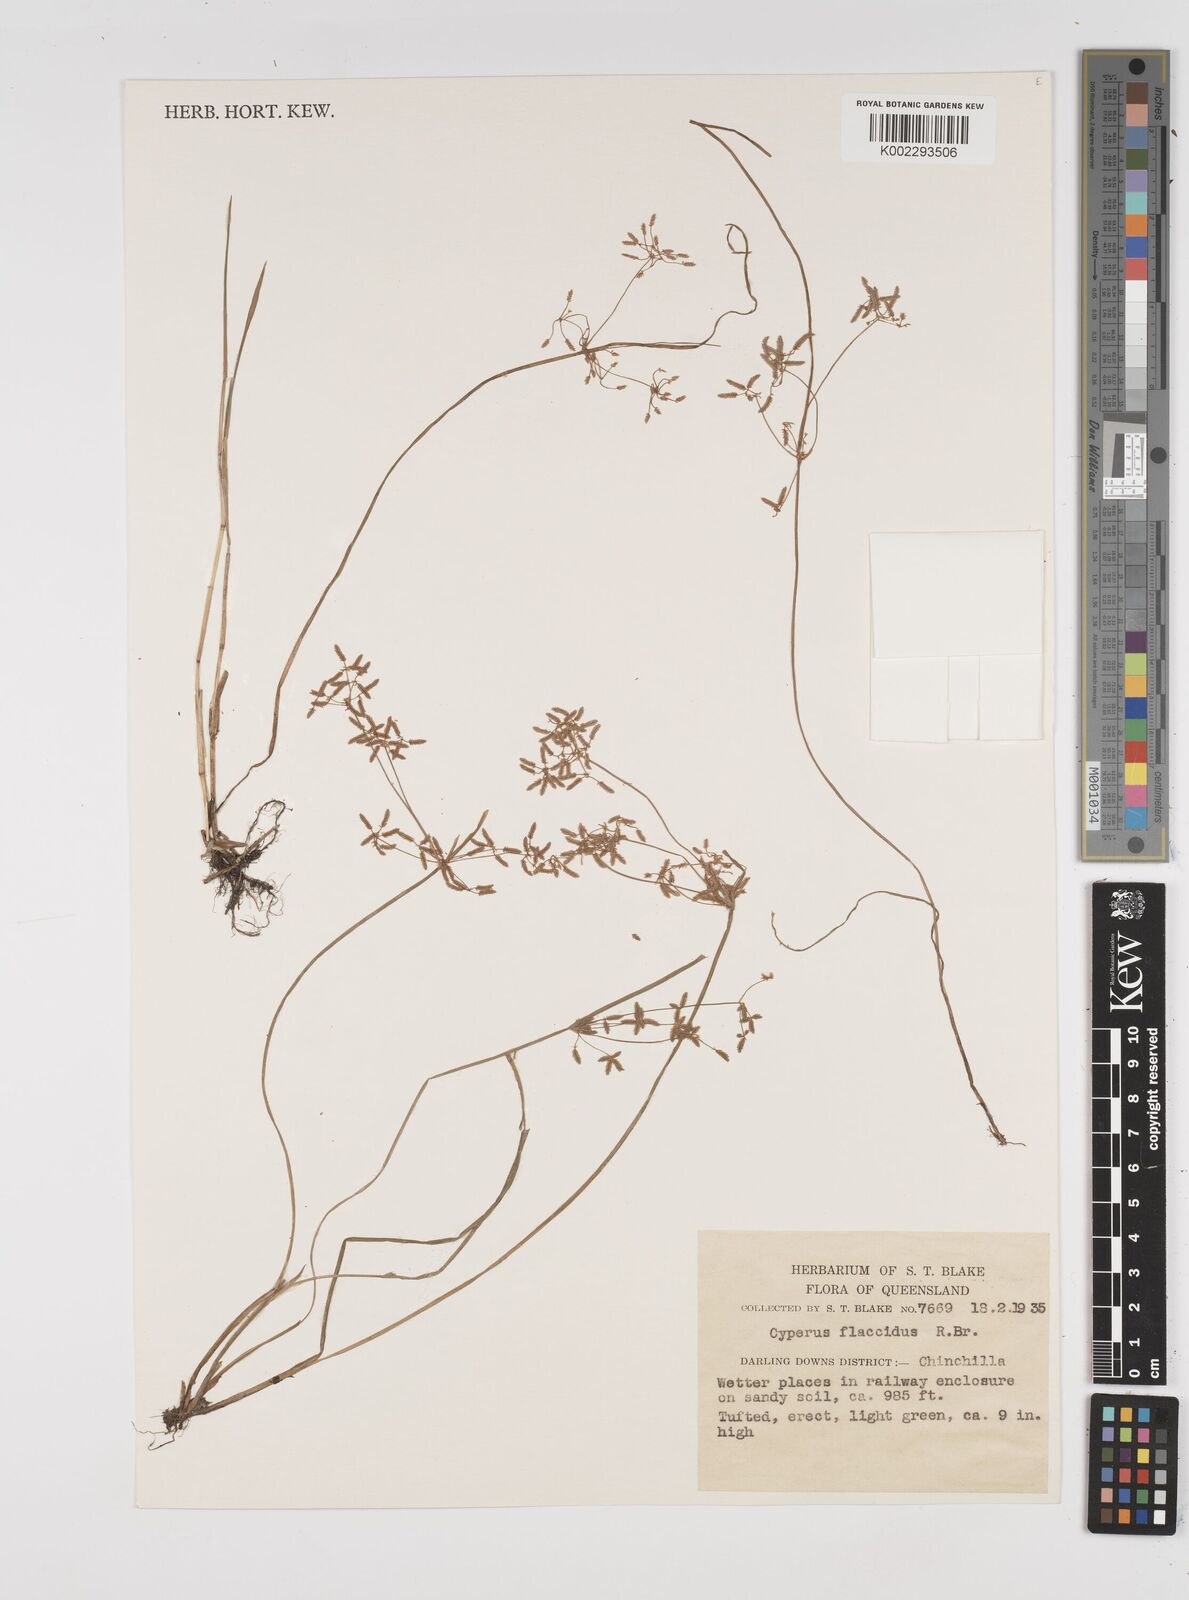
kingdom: Plantae
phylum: Tracheophyta
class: Liliopsida
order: Poales
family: Cyperaceae
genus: Cyperus
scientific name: Cyperus flaccidus
